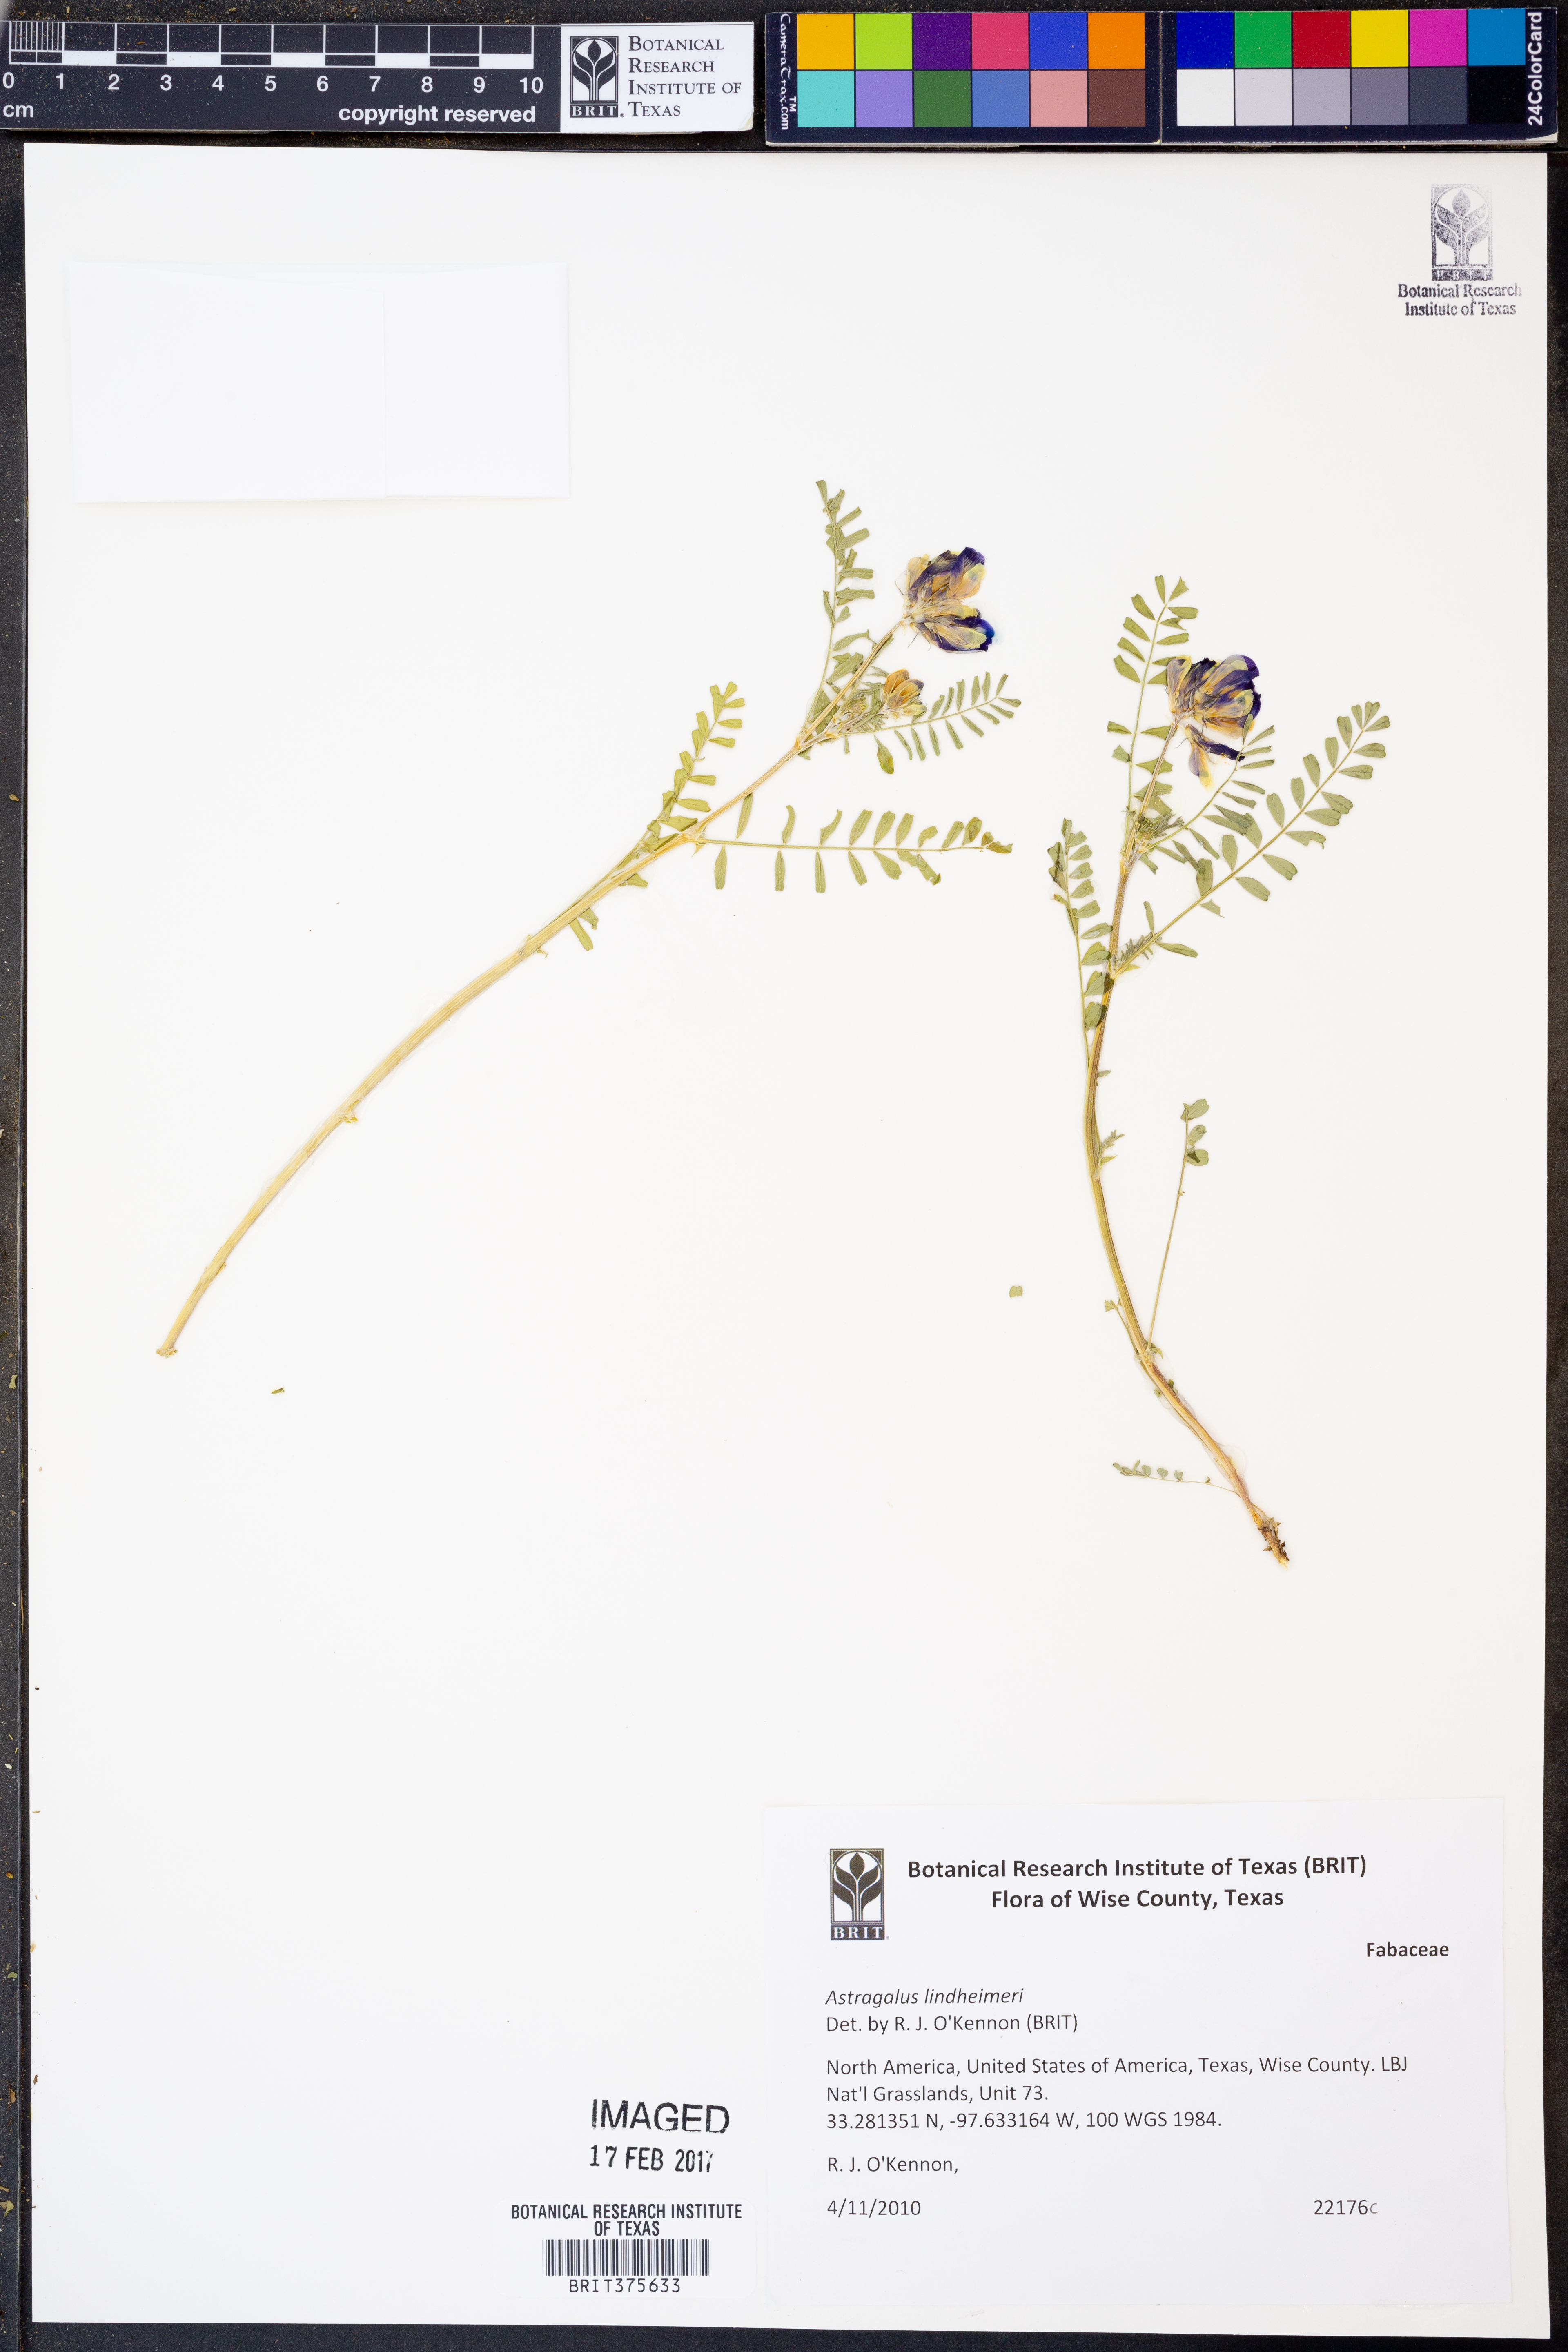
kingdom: Plantae
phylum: Tracheophyta
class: Magnoliopsida
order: Fabales
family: Fabaceae
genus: Astragalus
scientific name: Astragalus lindheimeri
